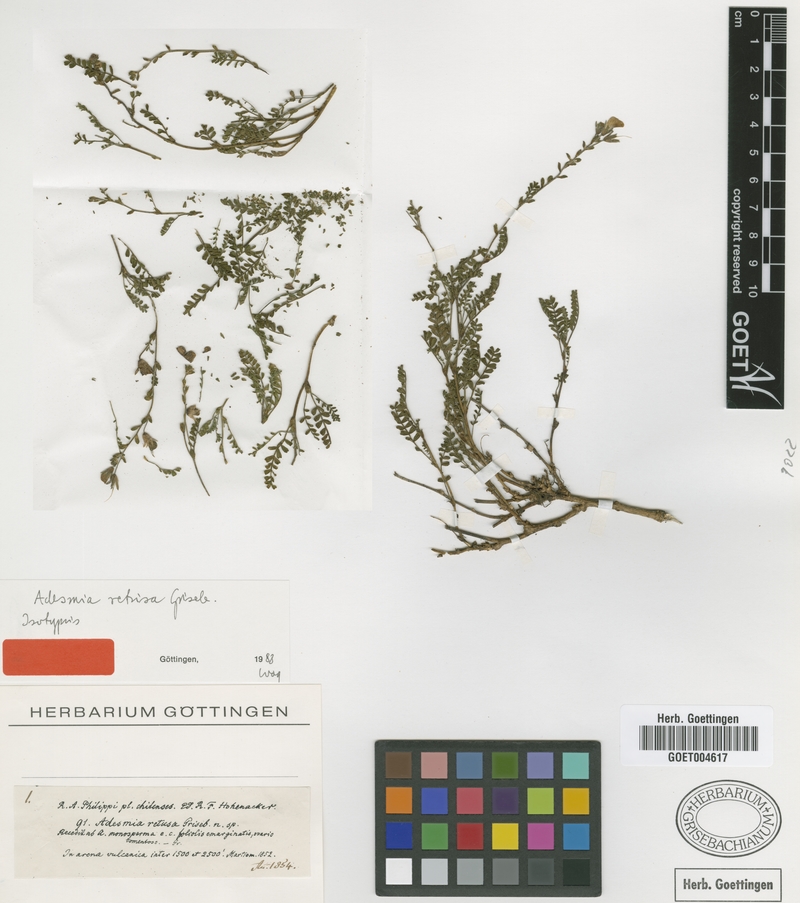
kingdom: Plantae
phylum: Tracheophyta
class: Magnoliopsida
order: Fabales
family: Fabaceae
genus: Adesmia
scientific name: Adesmia retusa
